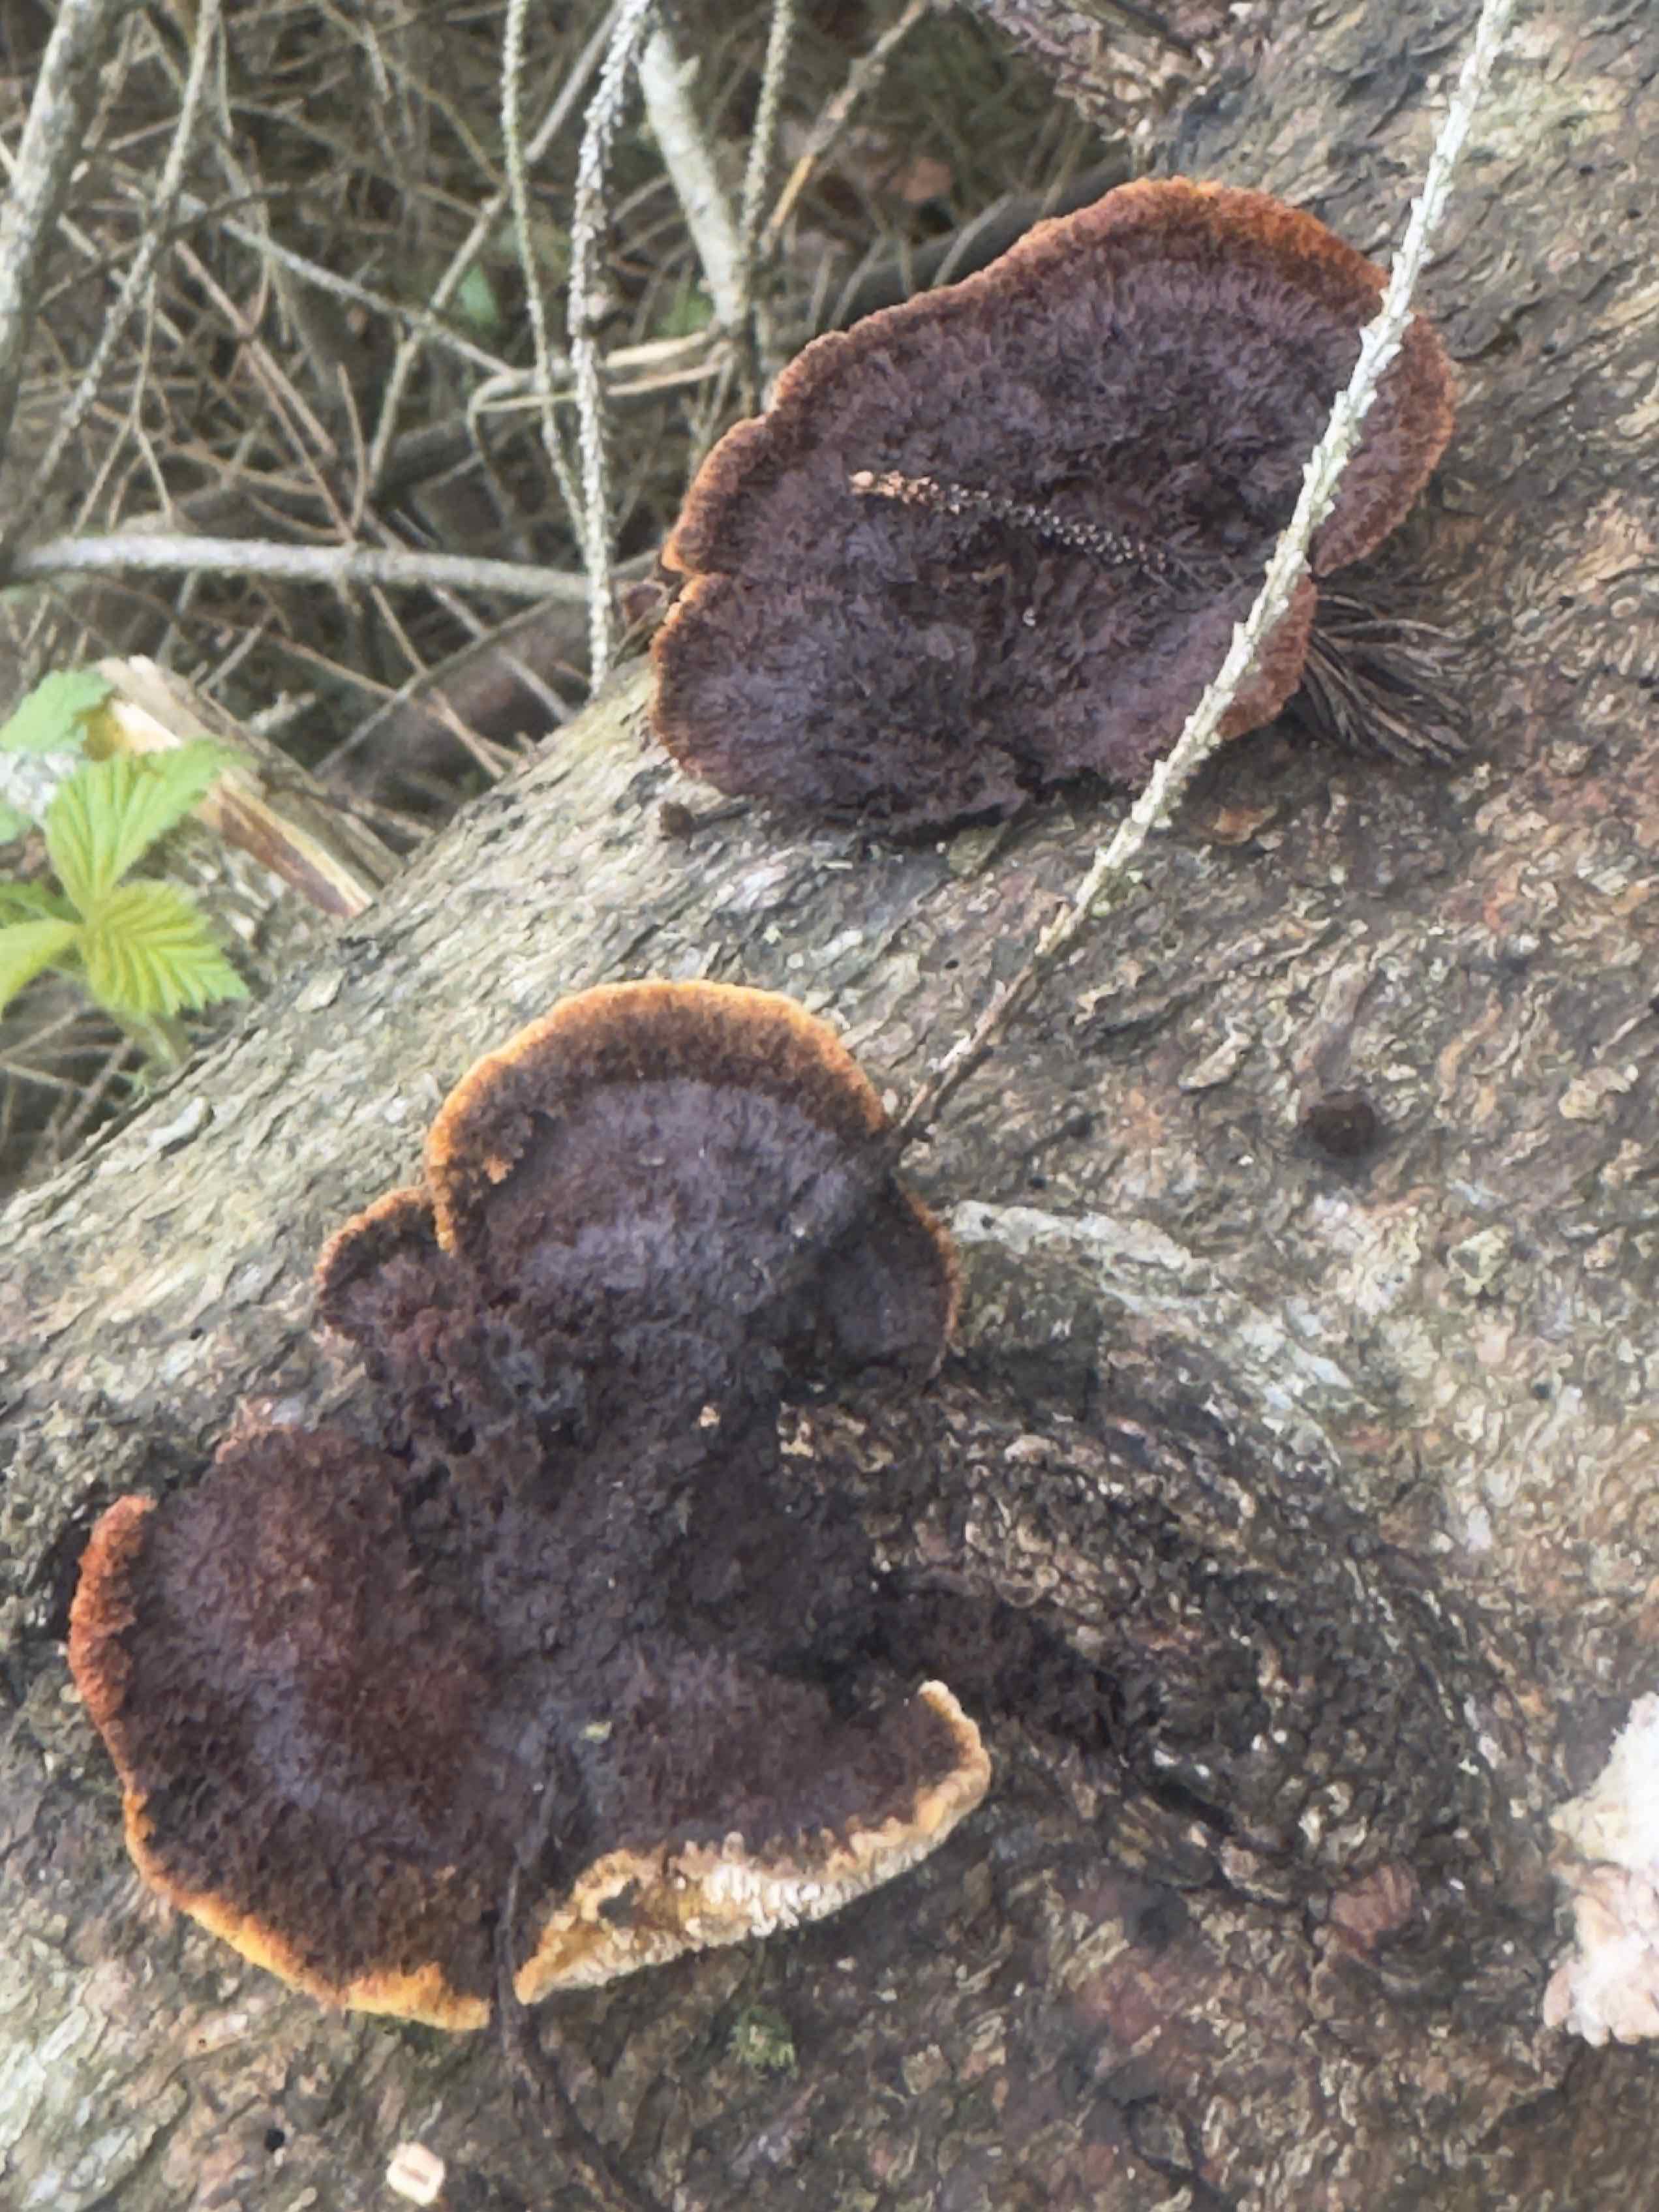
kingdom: Fungi
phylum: Basidiomycota
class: Agaricomycetes
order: Gloeophyllales
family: Gloeophyllaceae
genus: Gloeophyllum
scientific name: Gloeophyllum sepiarium
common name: fyrre-korkhat
